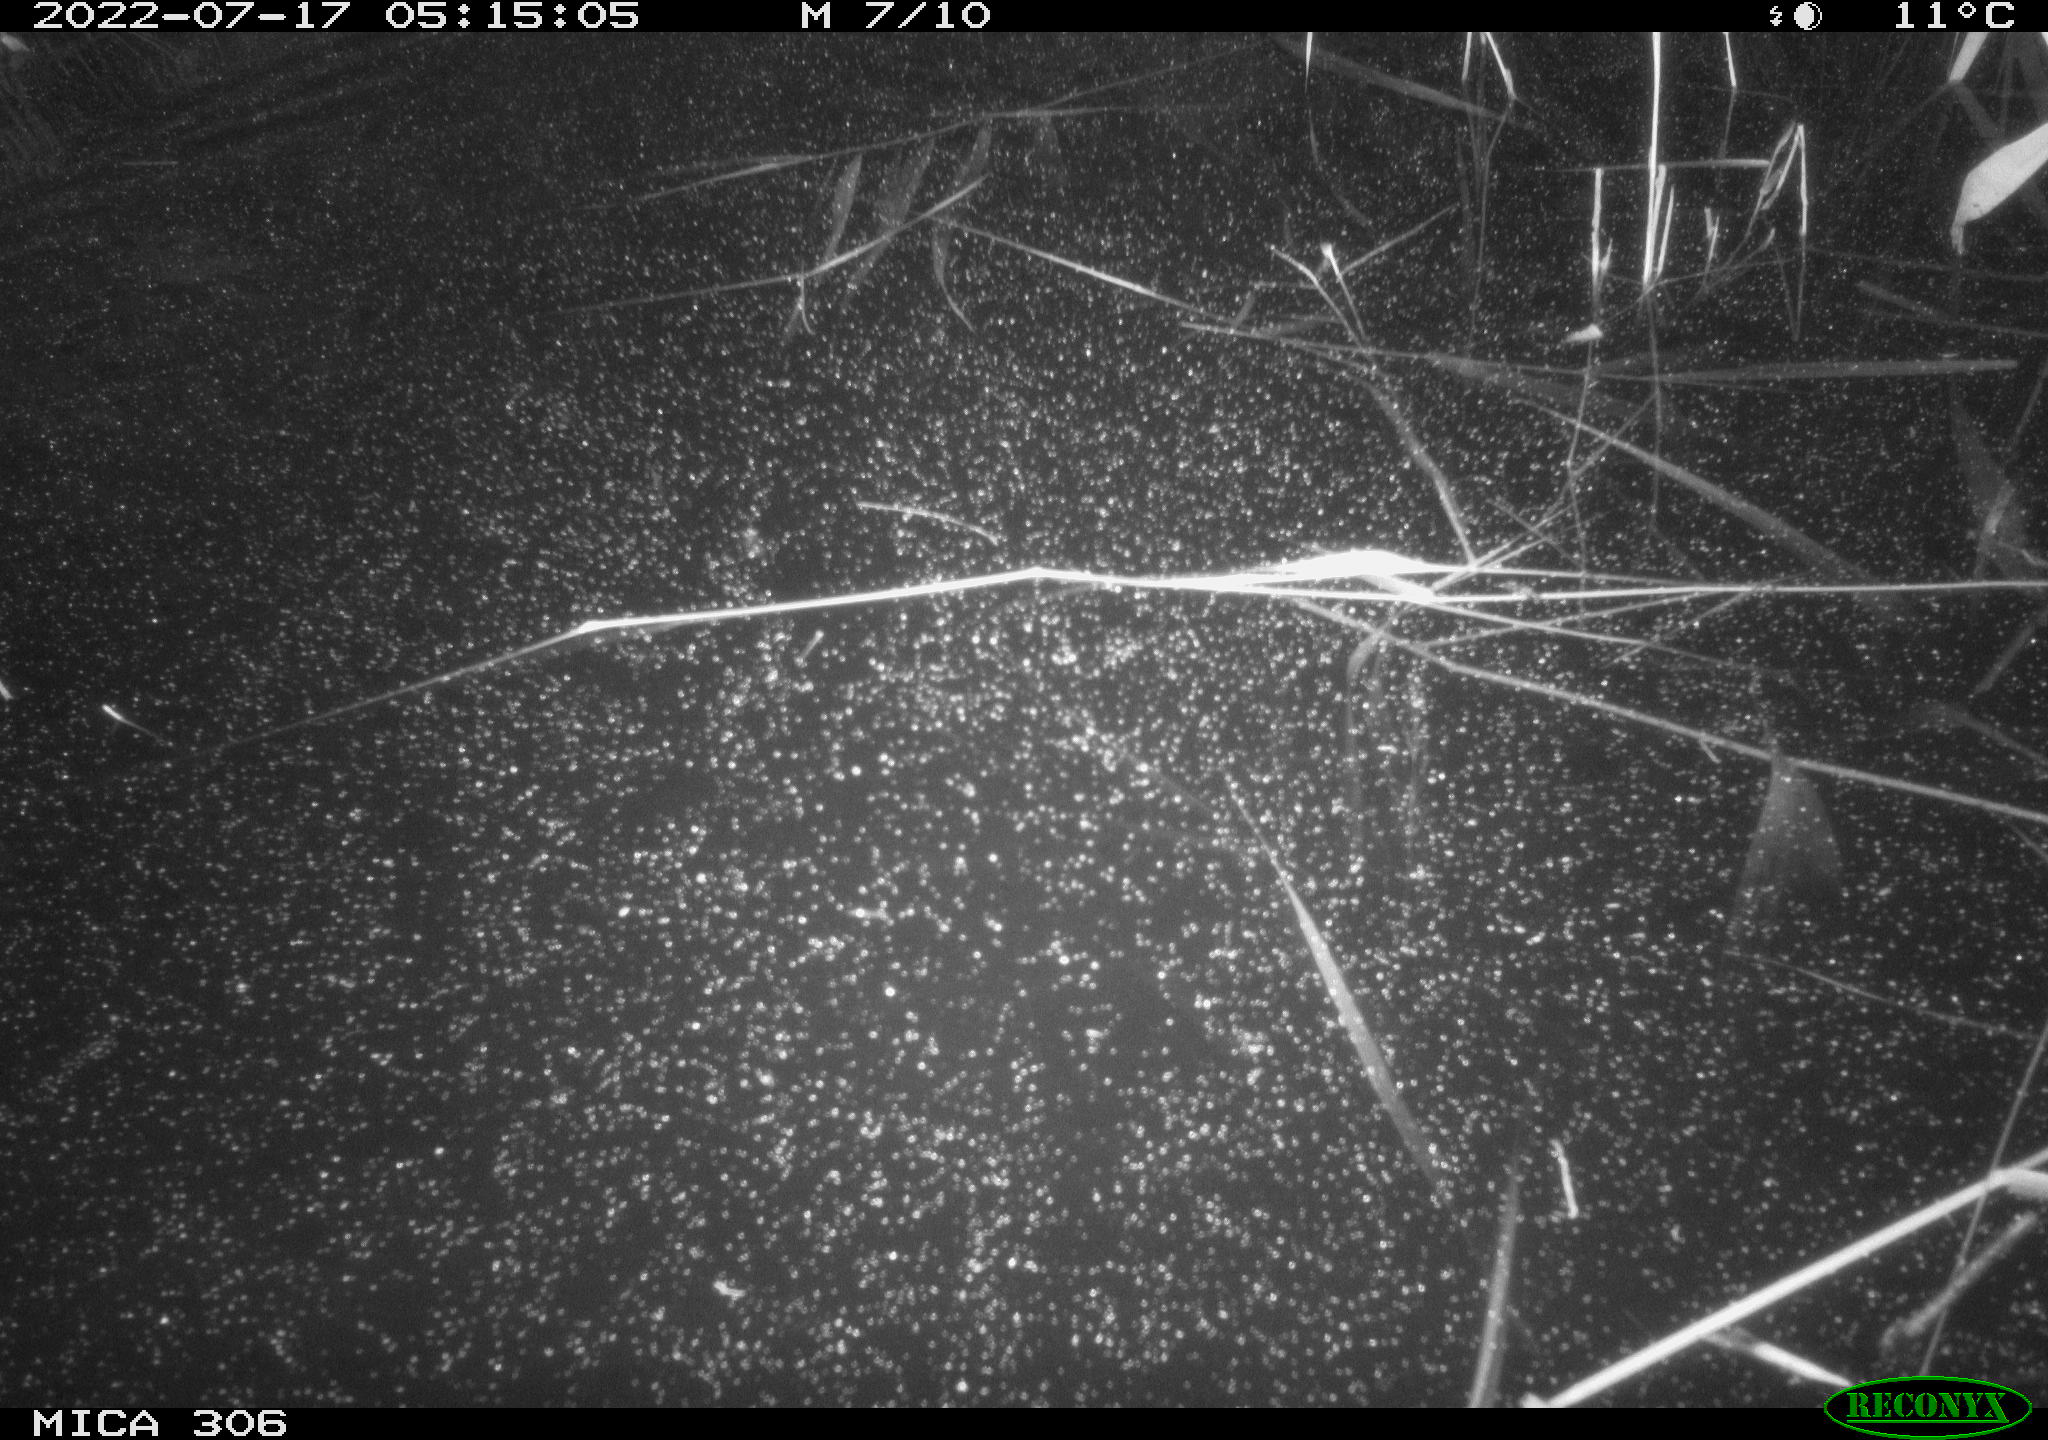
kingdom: Animalia
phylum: Chordata
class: Aves
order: Anseriformes
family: Anatidae
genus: Anas
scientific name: Anas platyrhynchos
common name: Mallard
